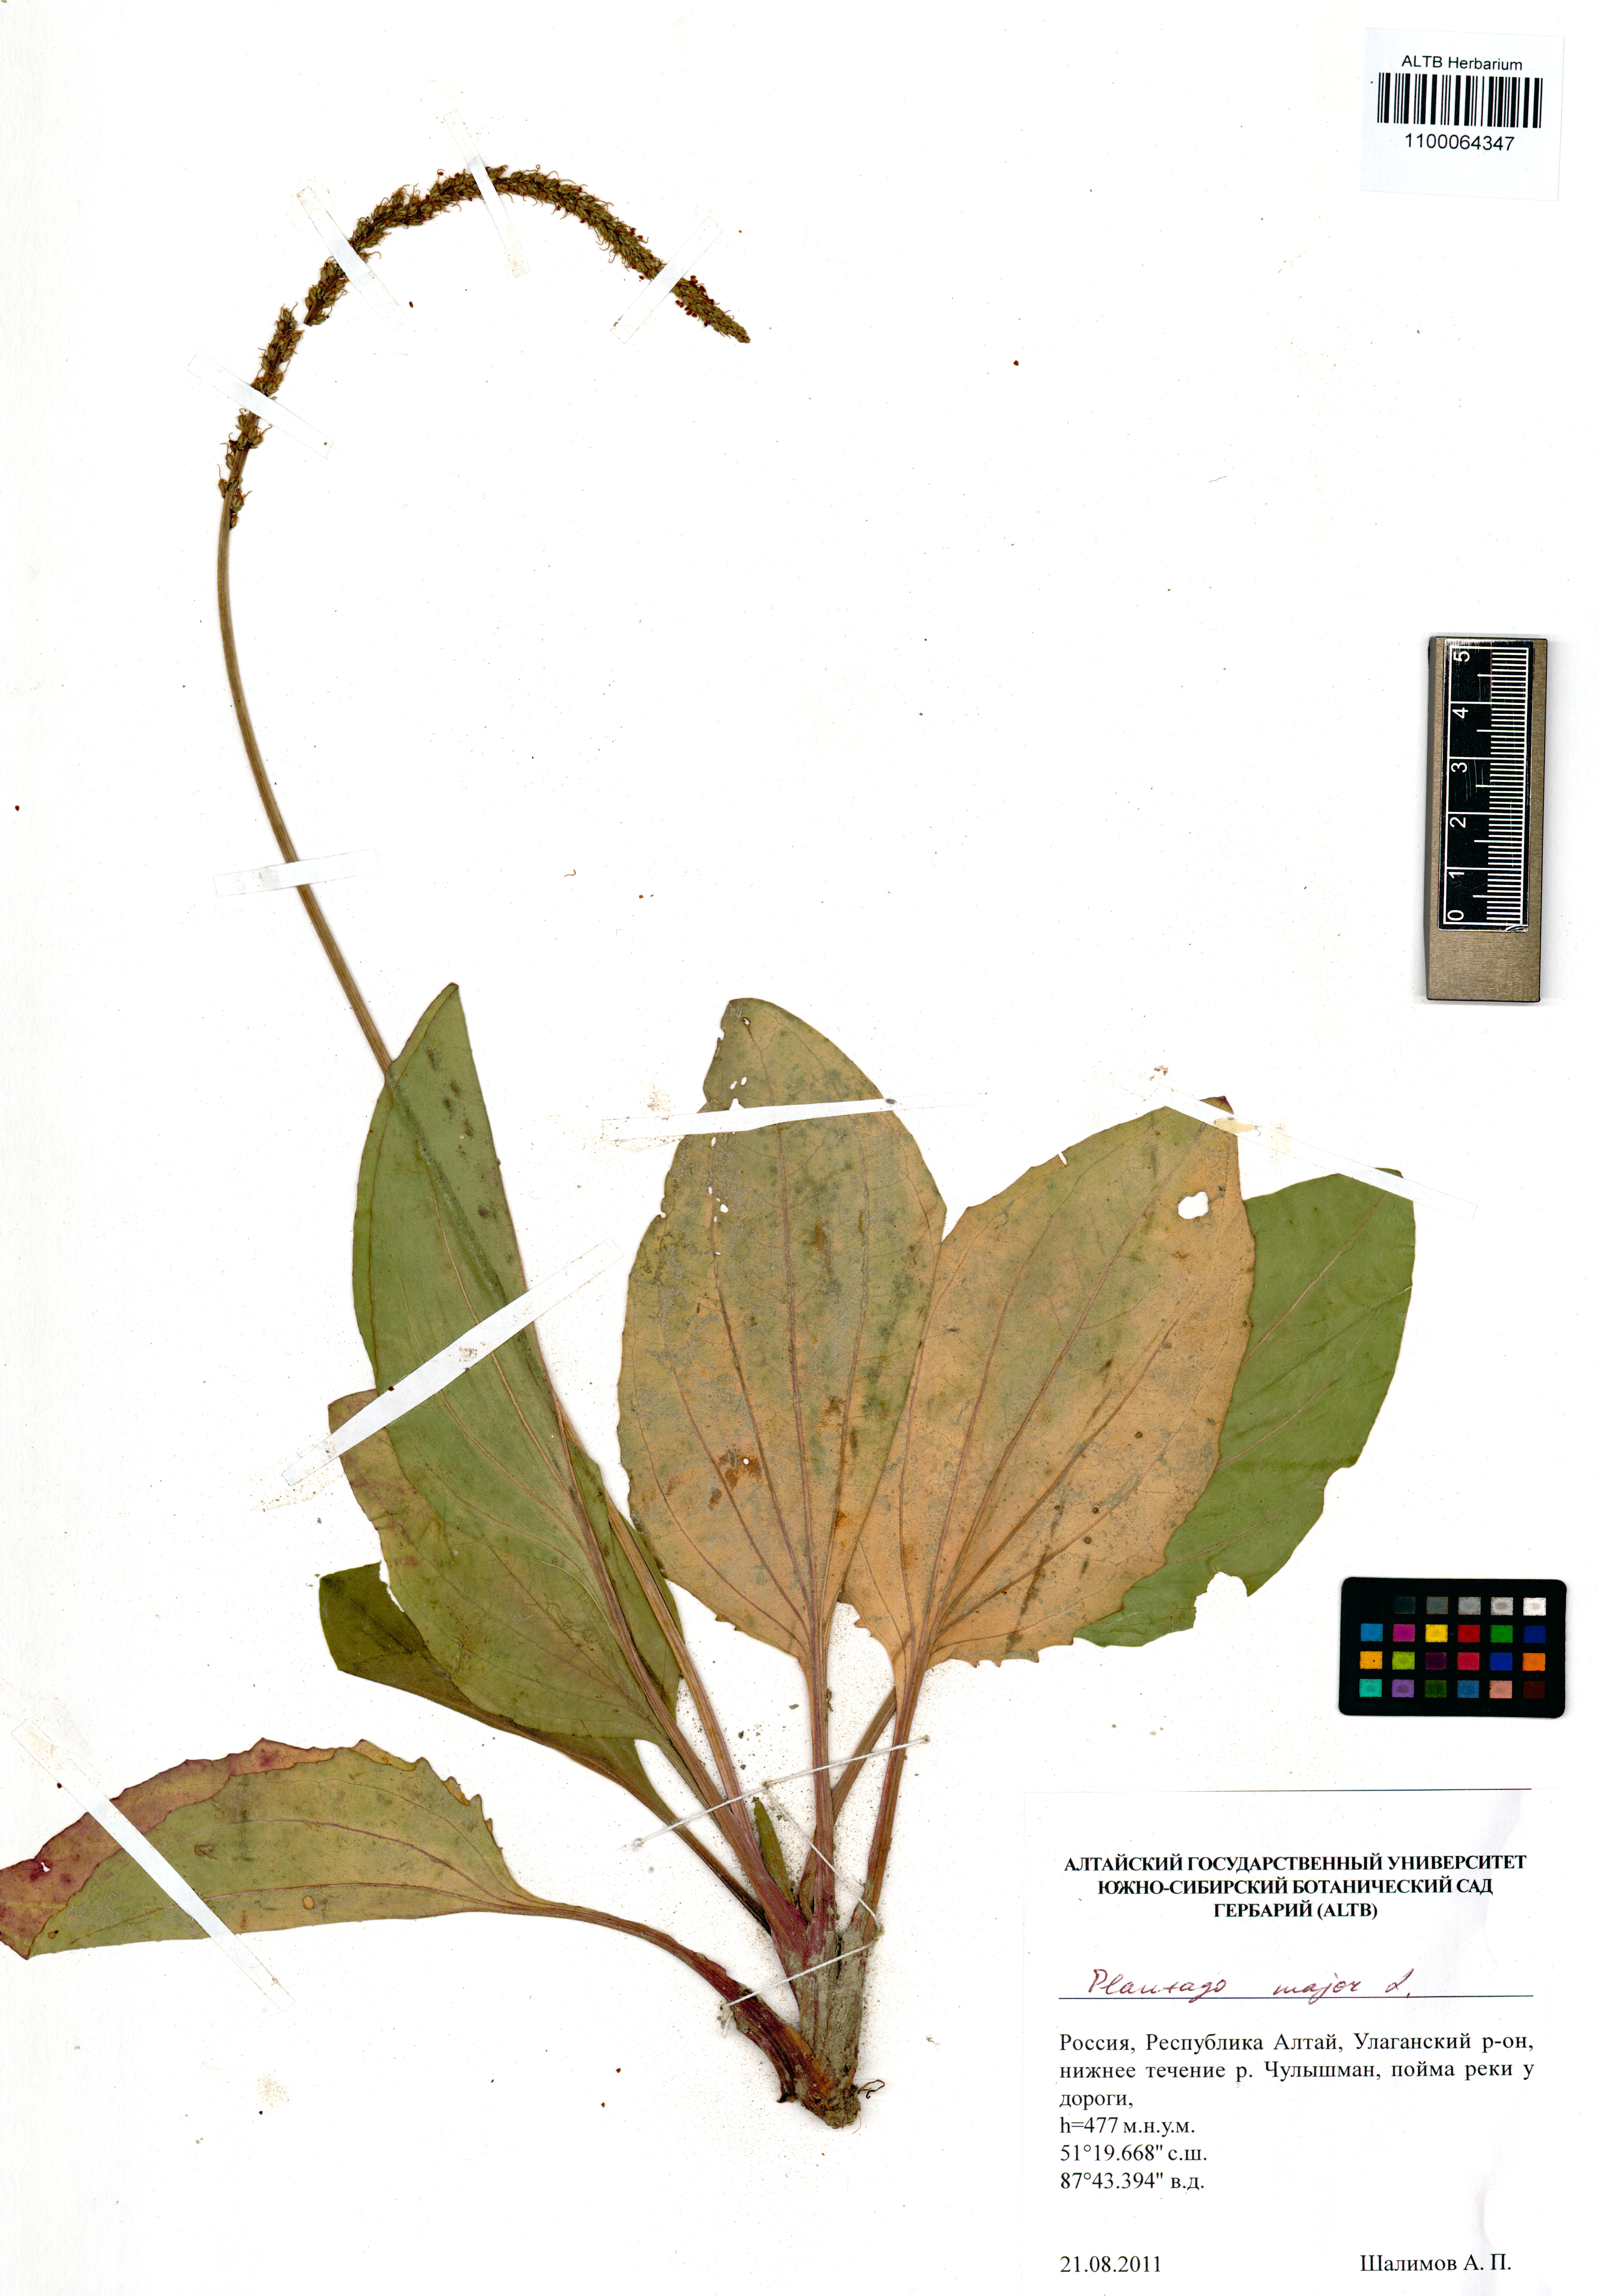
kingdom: Plantae
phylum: Tracheophyta
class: Magnoliopsida
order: Lamiales
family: Plantaginaceae
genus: Plantago
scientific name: Plantago major
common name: Common plantain
